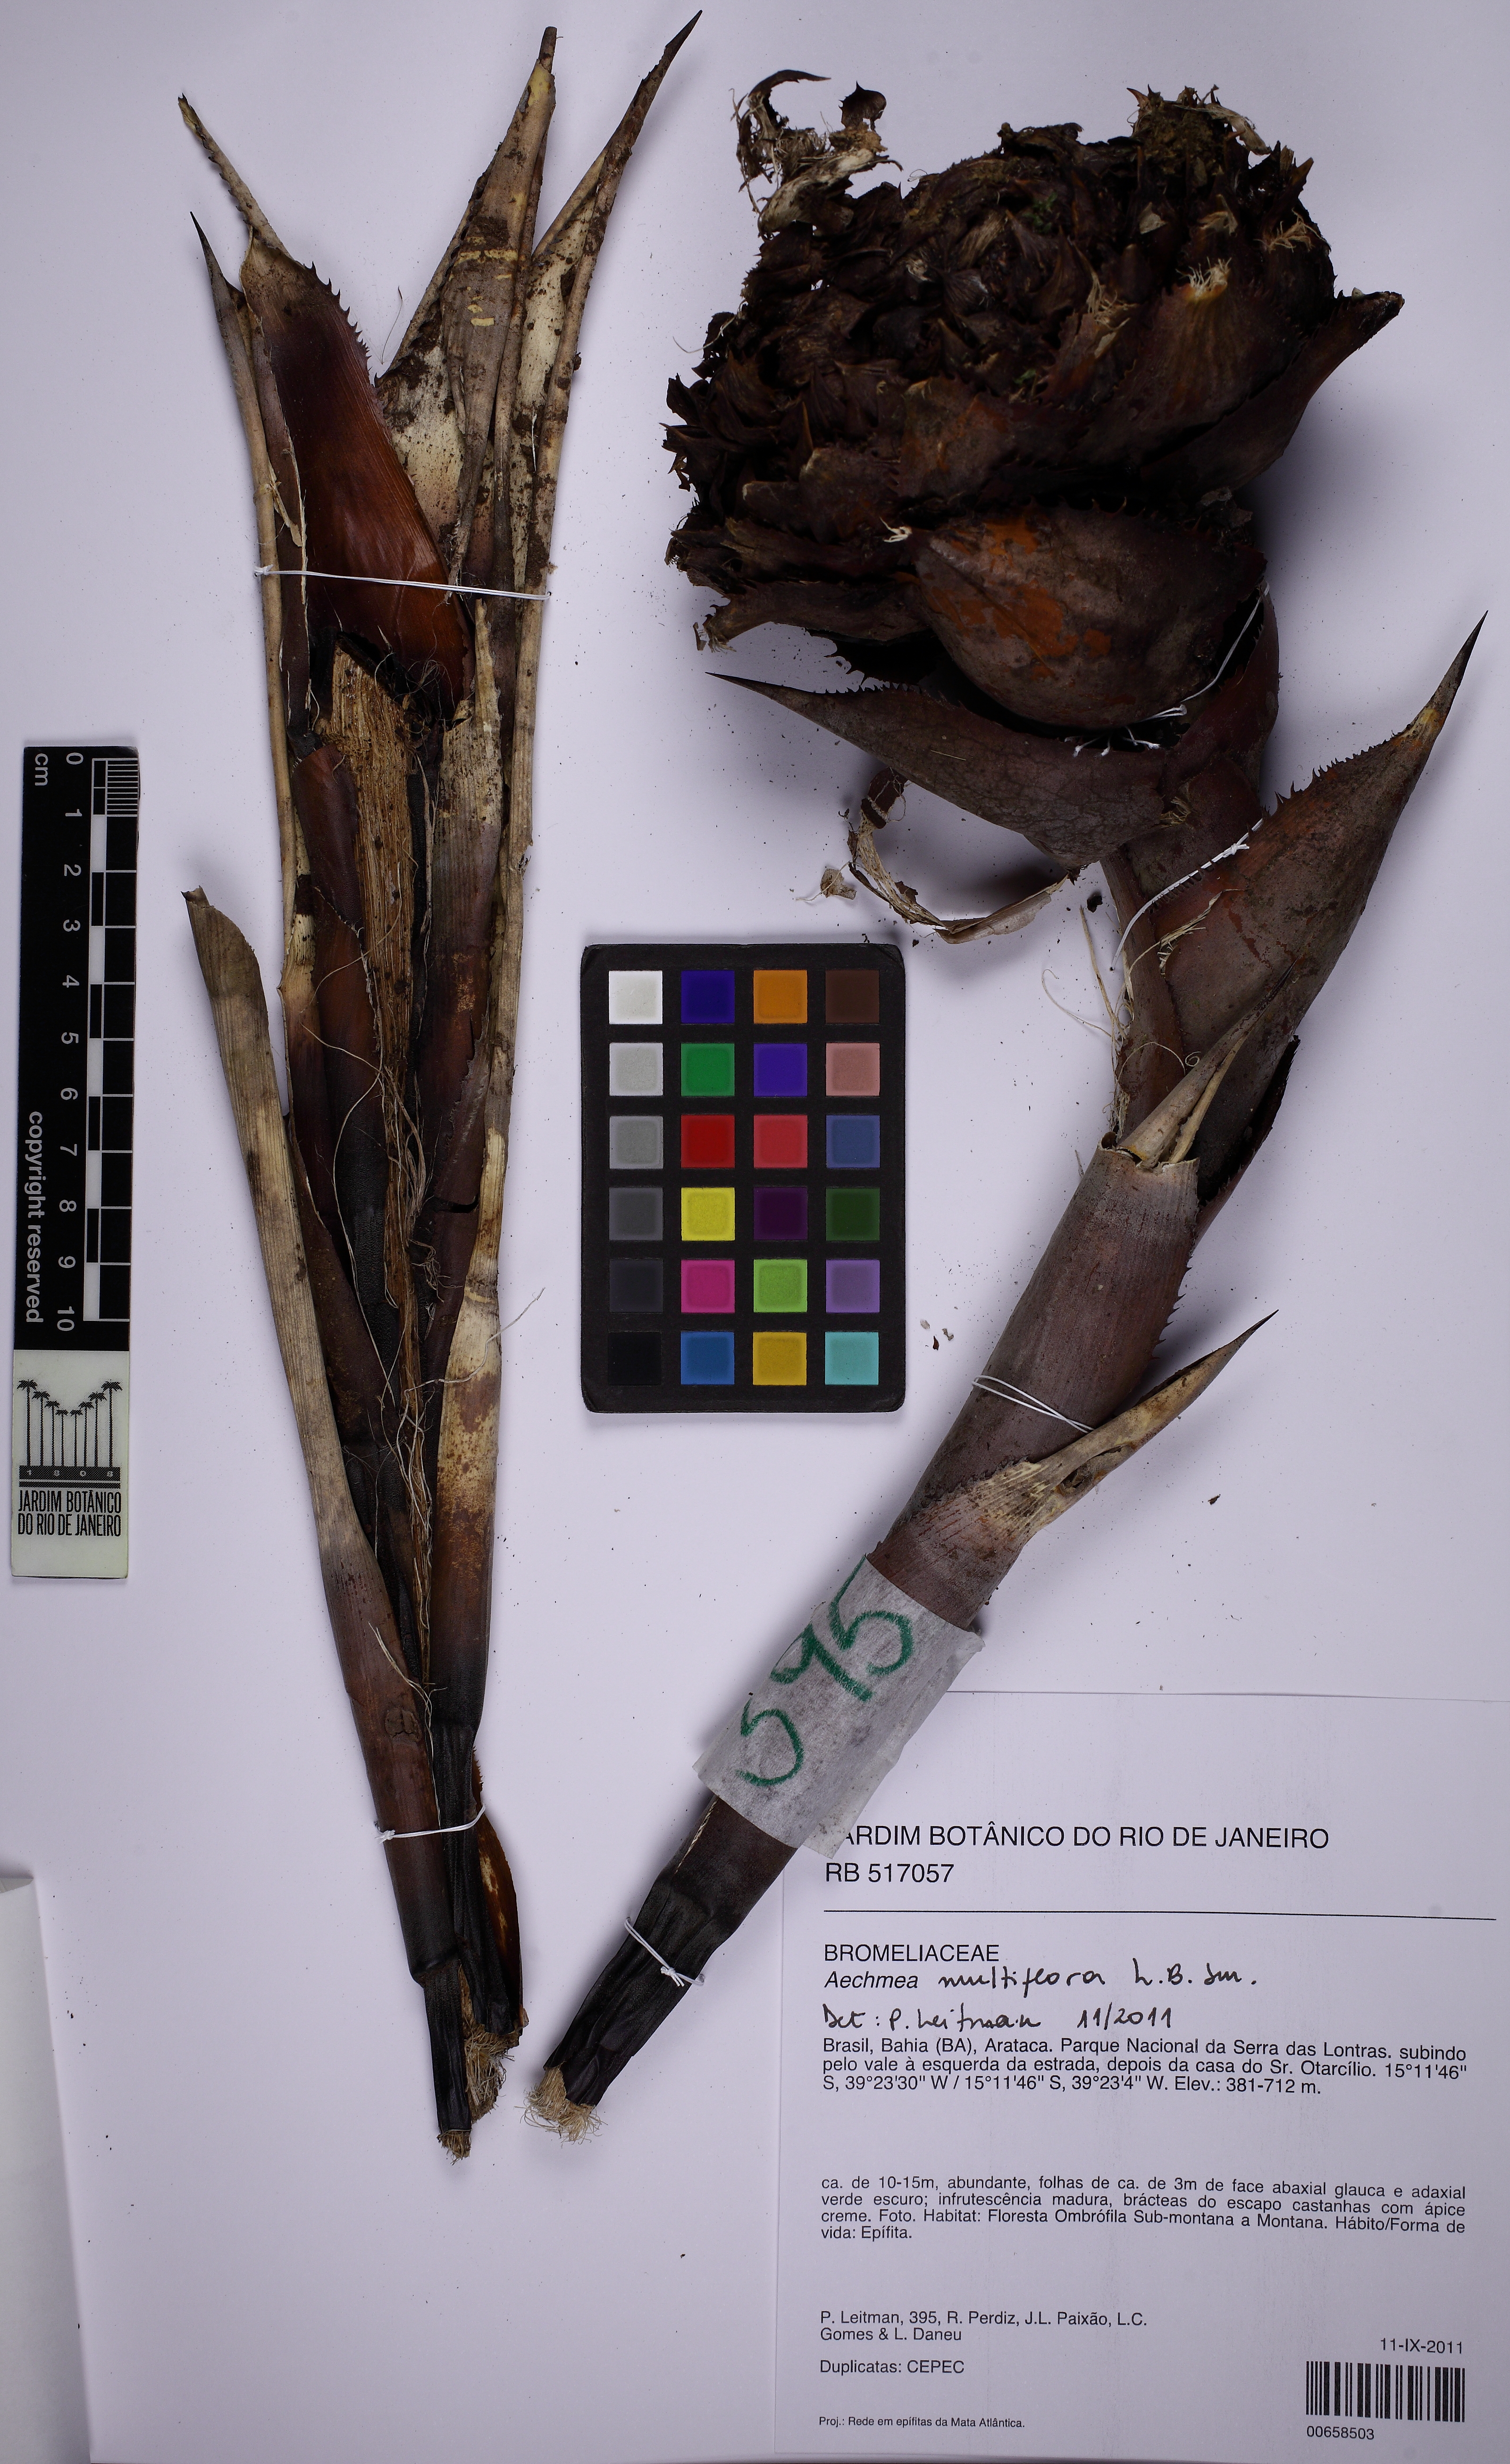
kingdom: Plantae
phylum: Tracheophyta
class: Liliopsida
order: Poales
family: Bromeliaceae
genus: Karawata
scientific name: Karawata multiflora
